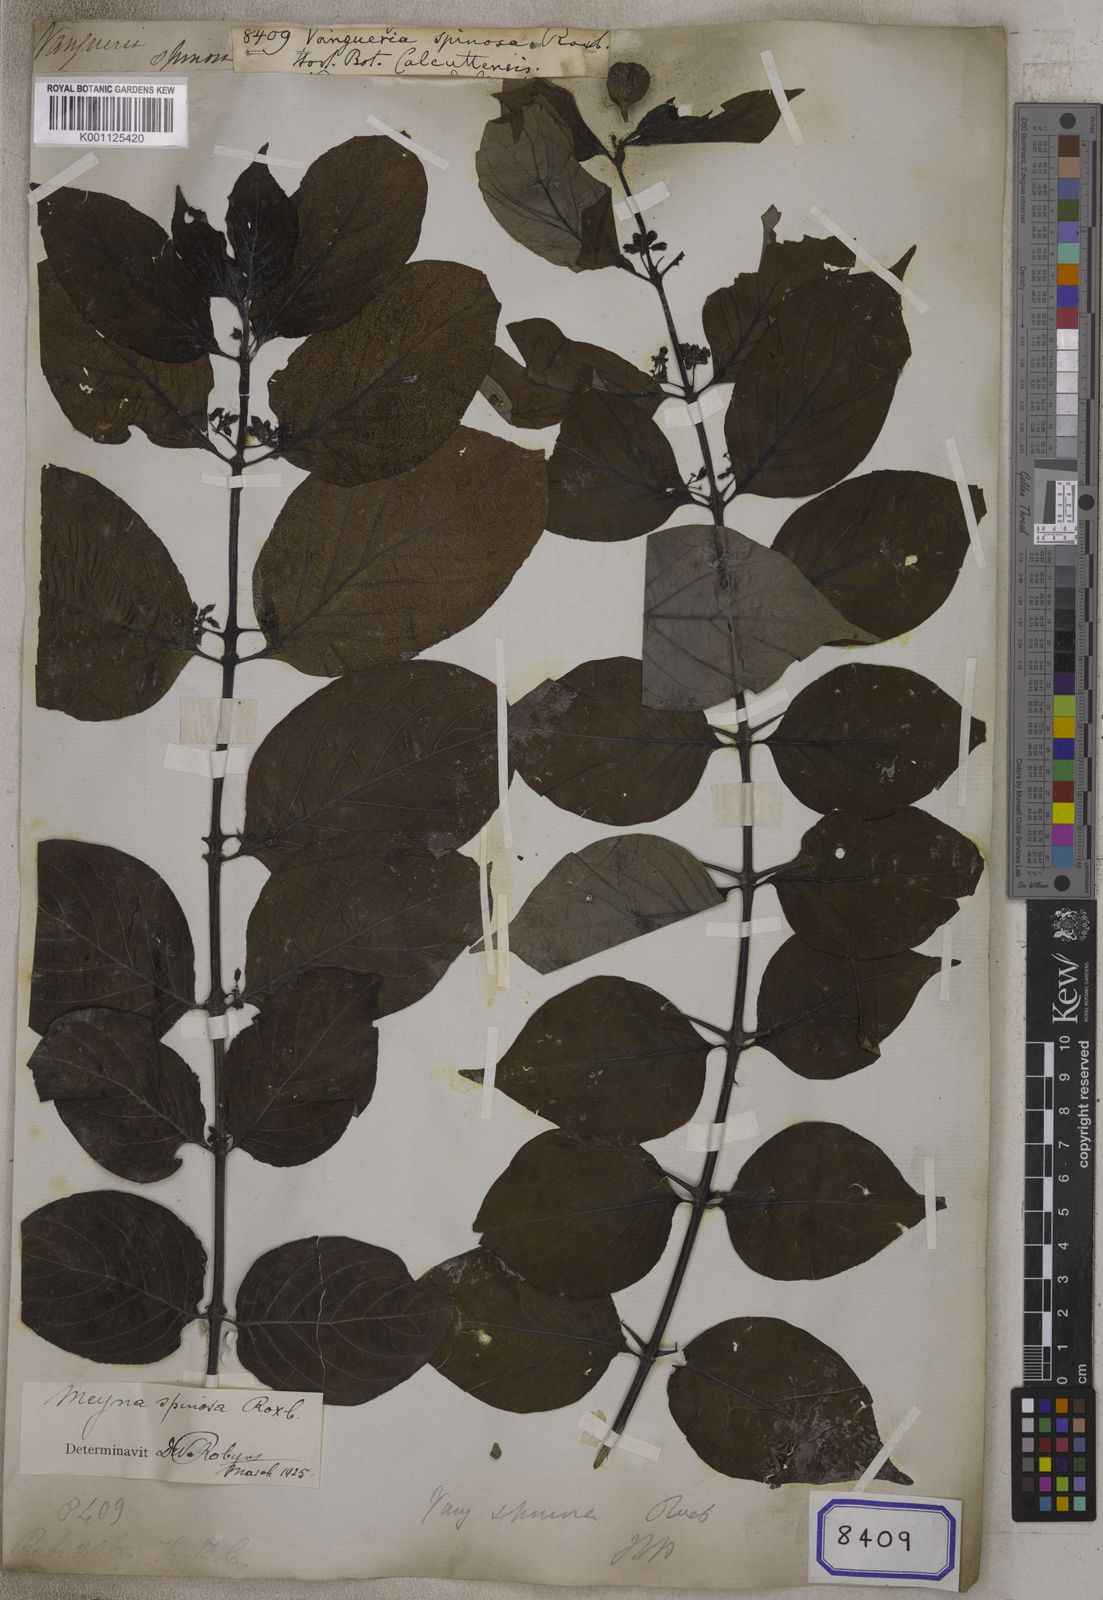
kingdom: Plantae
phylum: Tracheophyta
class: Magnoliopsida
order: Gentianales
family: Rubiaceae
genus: Meyna
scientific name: Meyna spinosa
